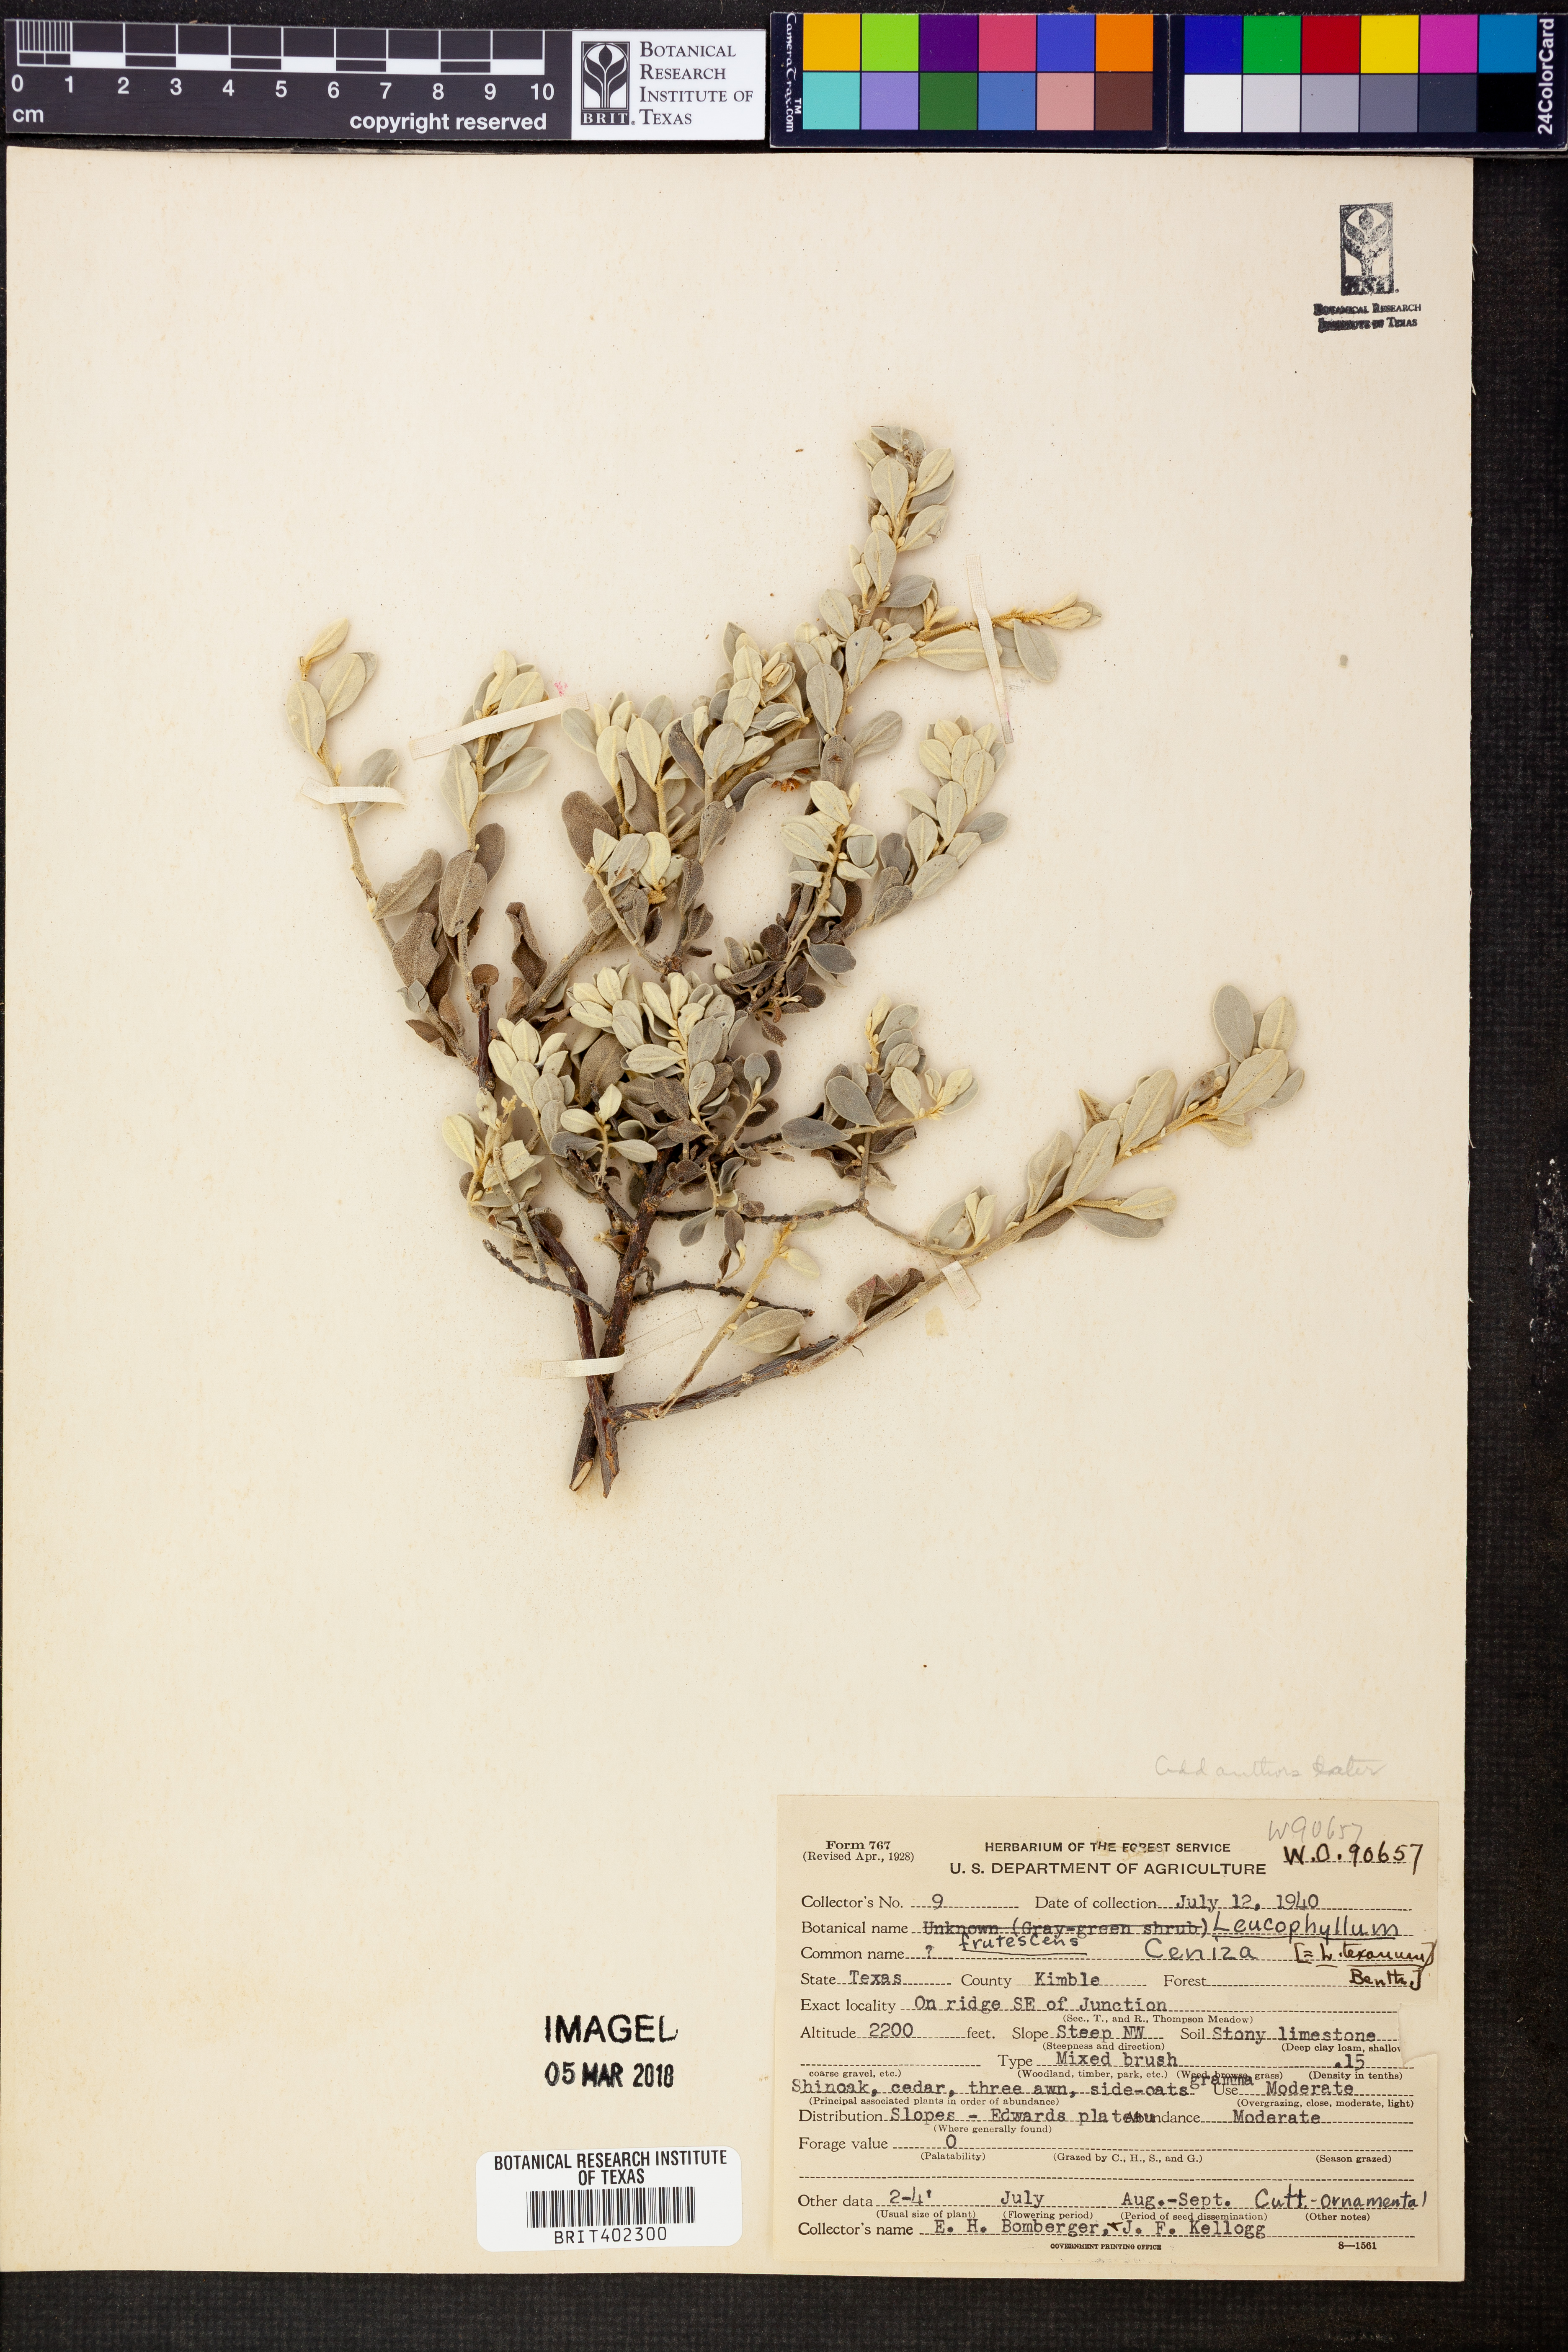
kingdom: Plantae
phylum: Tracheophyta
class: Magnoliopsida
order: Lamiales
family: Scrophulariaceae
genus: Leucophyllum
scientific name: Leucophyllum
